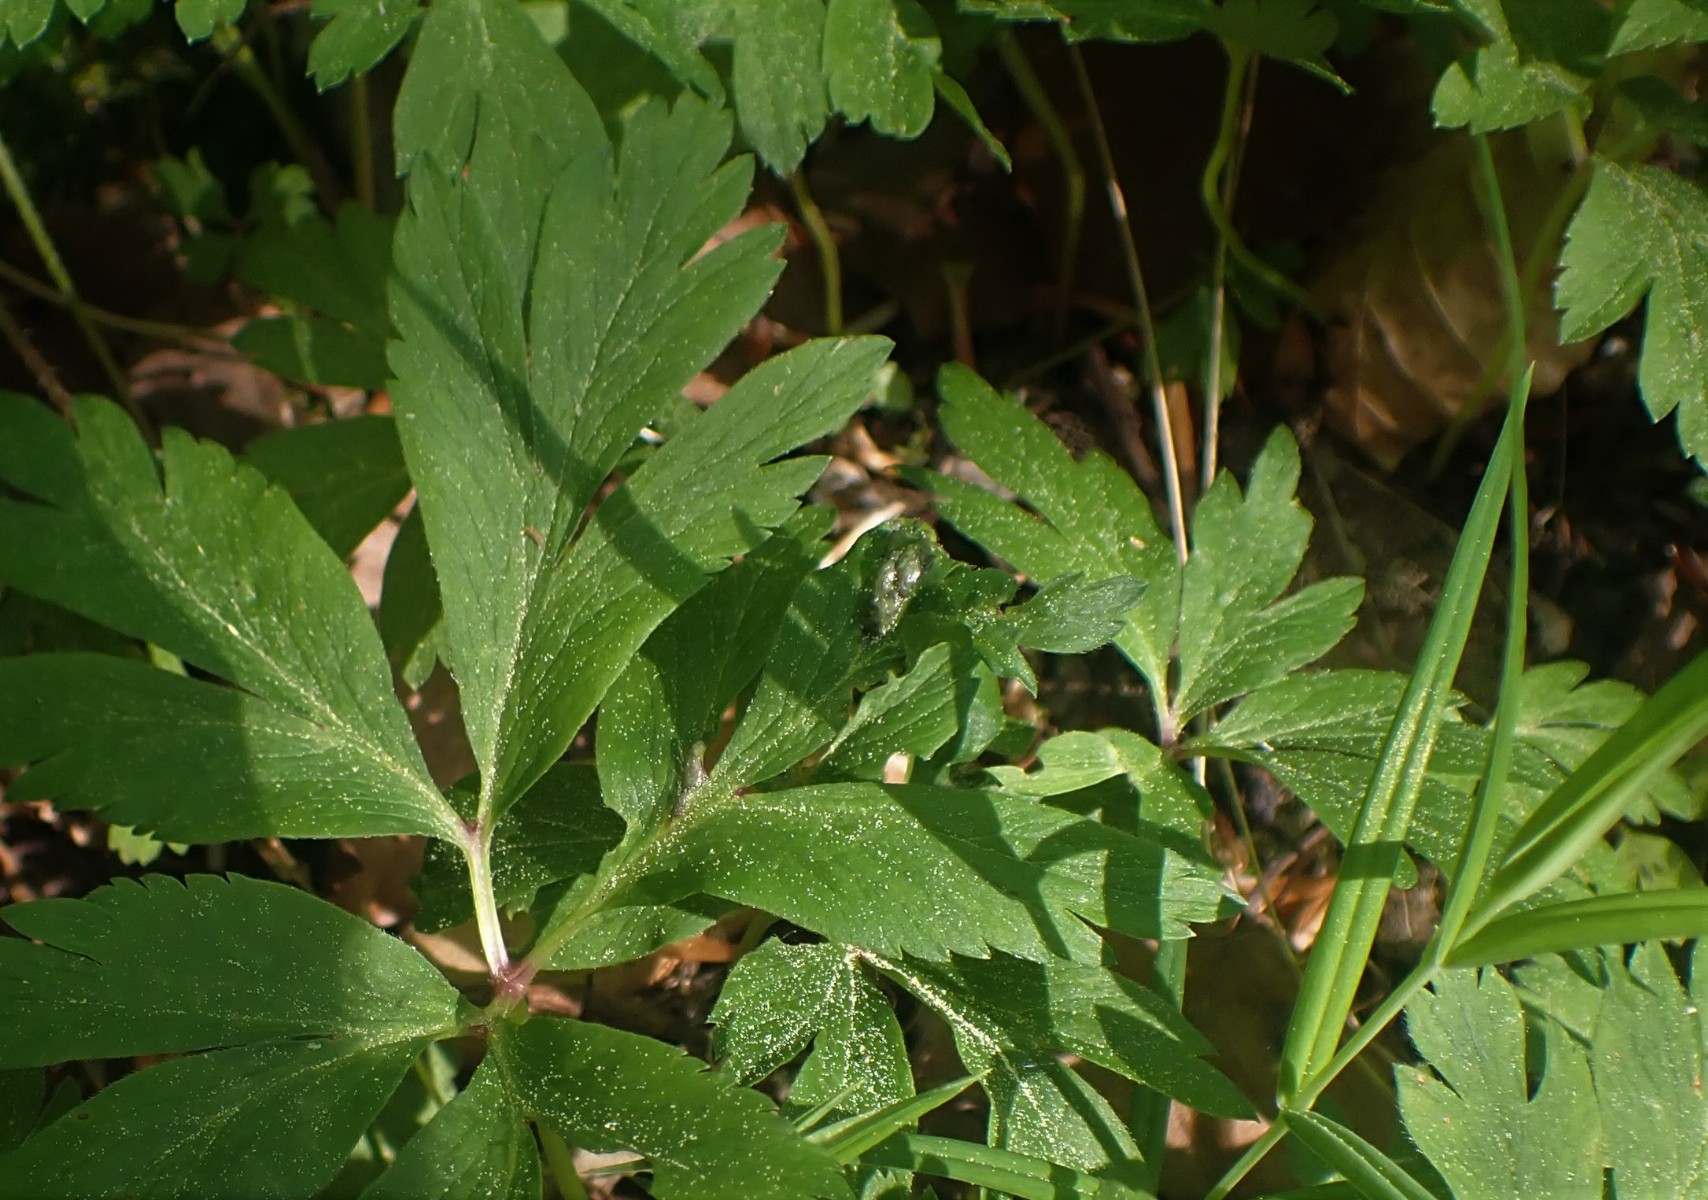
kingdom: Fungi
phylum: Basidiomycota
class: Ustilaginomycetes
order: Urocystidales
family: Urocystidaceae
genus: Urocystis
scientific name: Urocystis anemones
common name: anemone-brand
